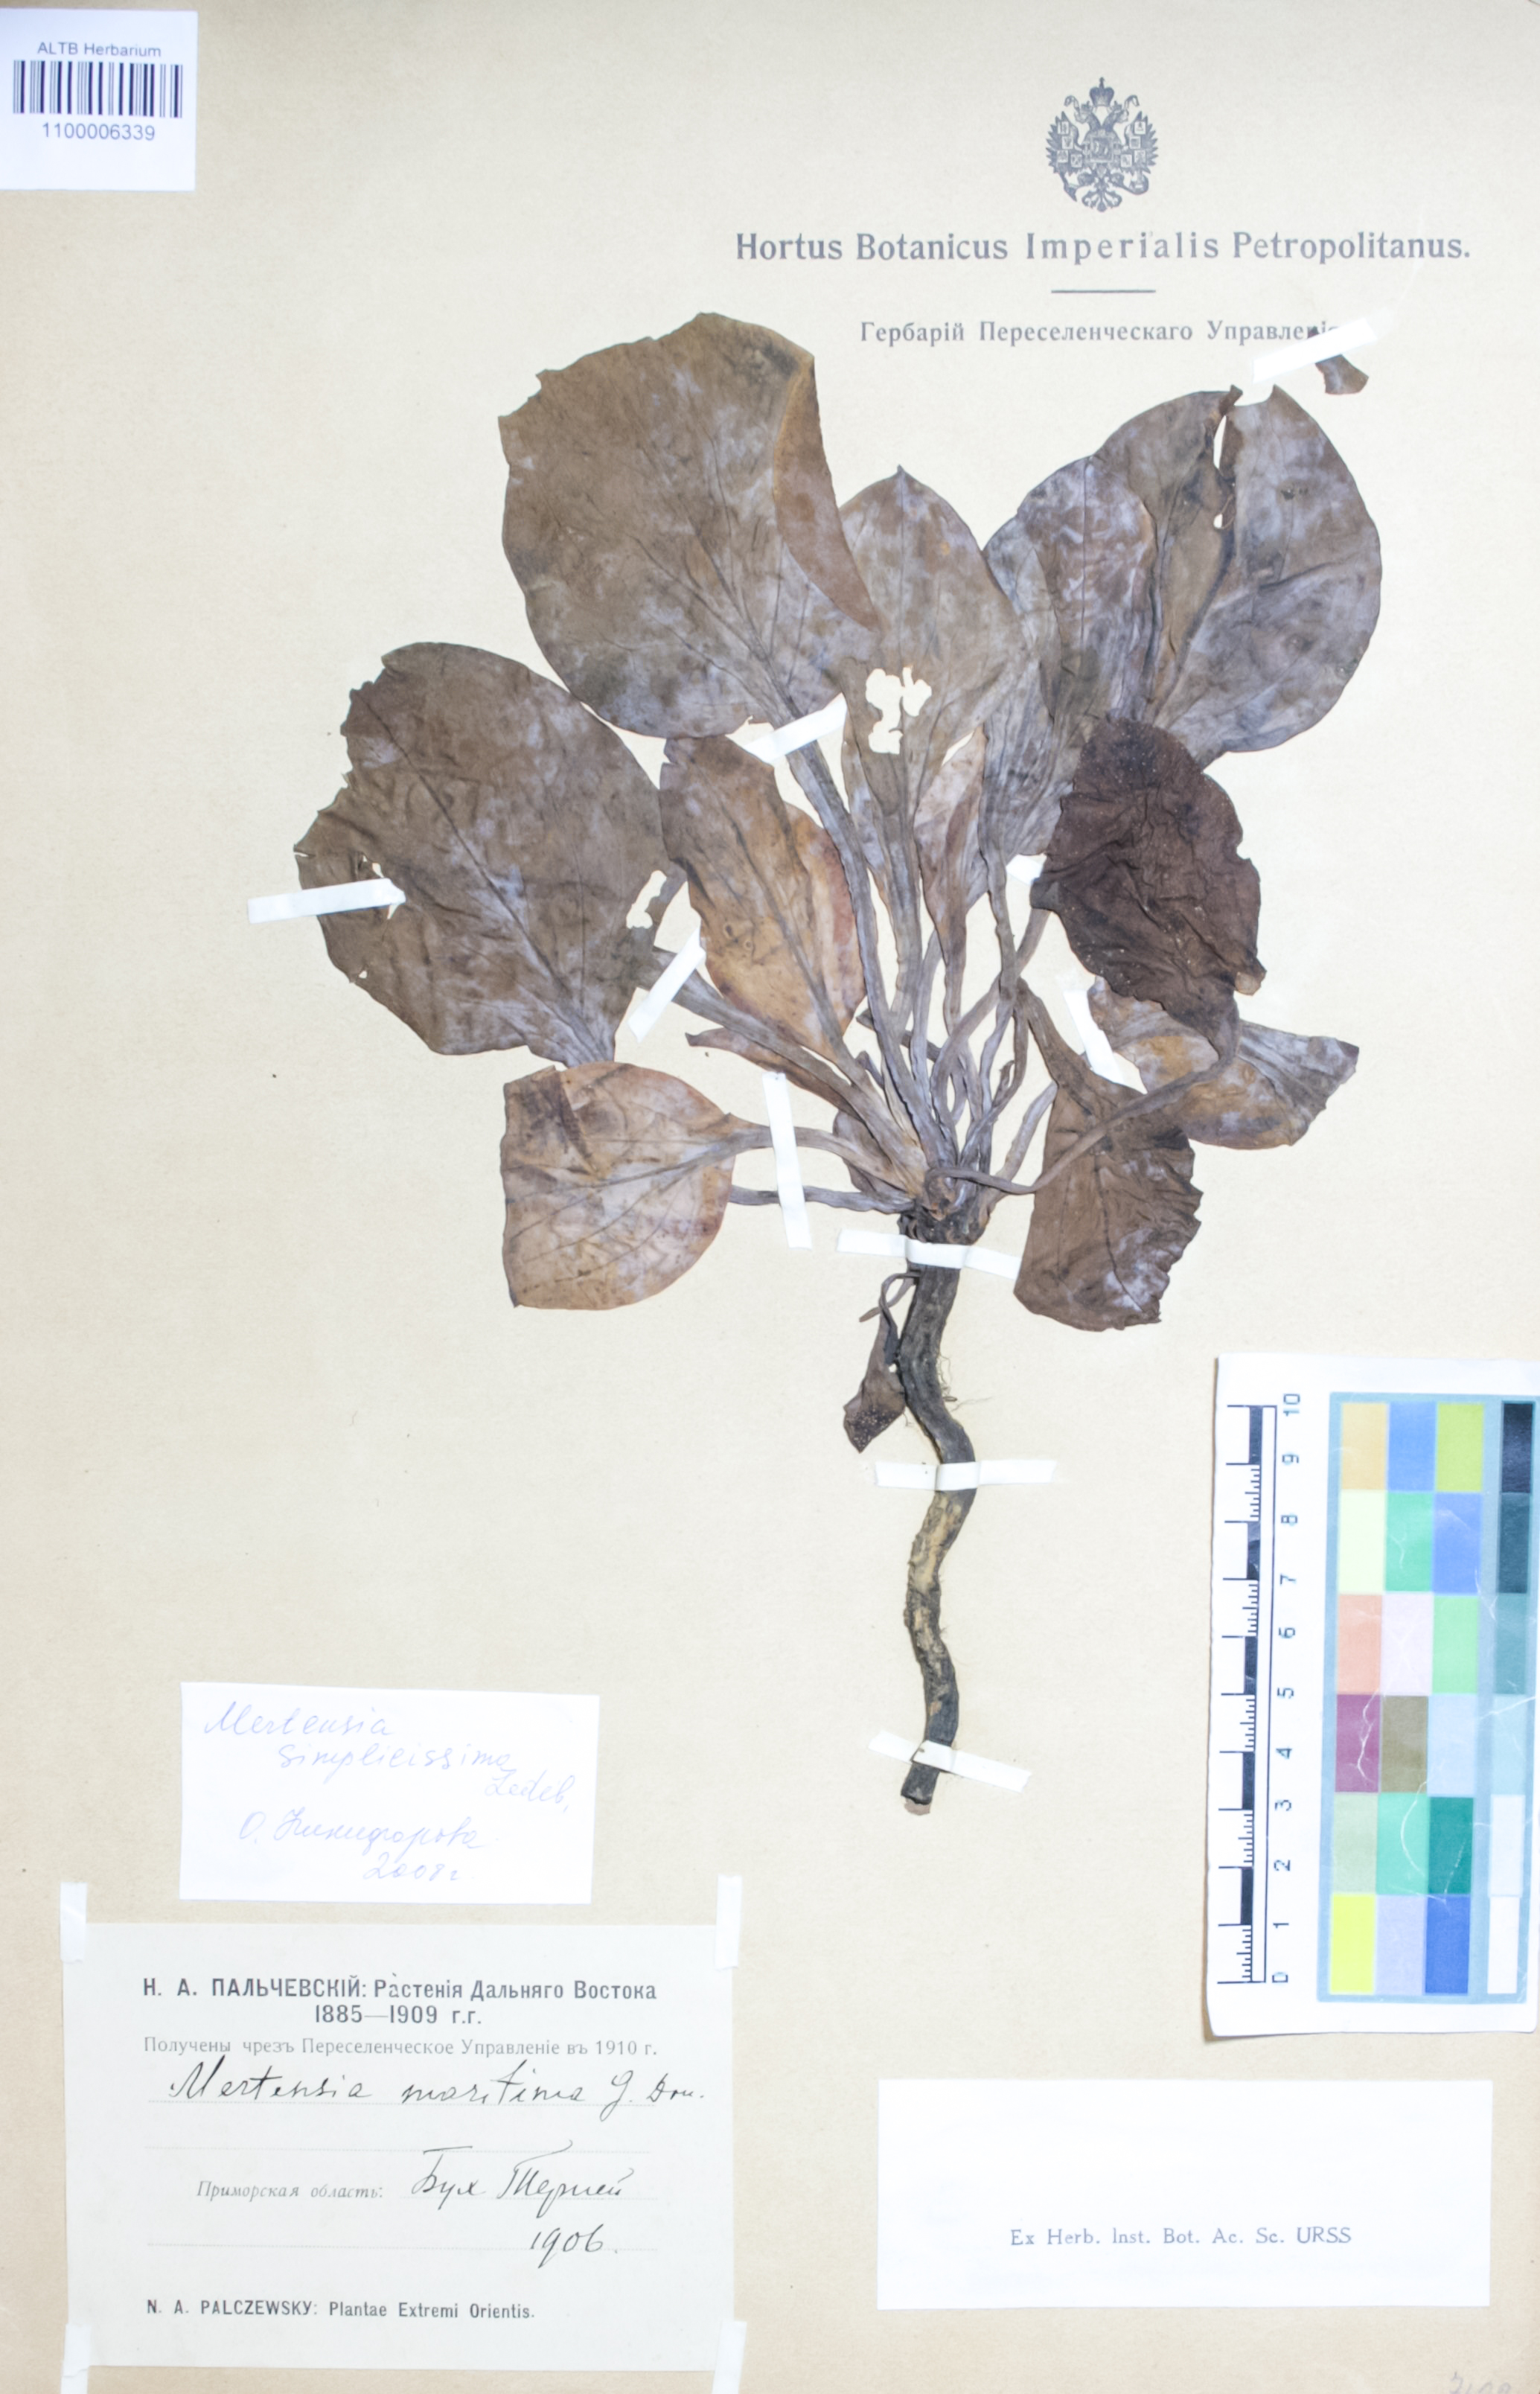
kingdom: Plantae
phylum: Tracheophyta
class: Magnoliopsida
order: Boraginales
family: Boraginaceae
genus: Mertensia
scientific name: Mertensia simplicissima
